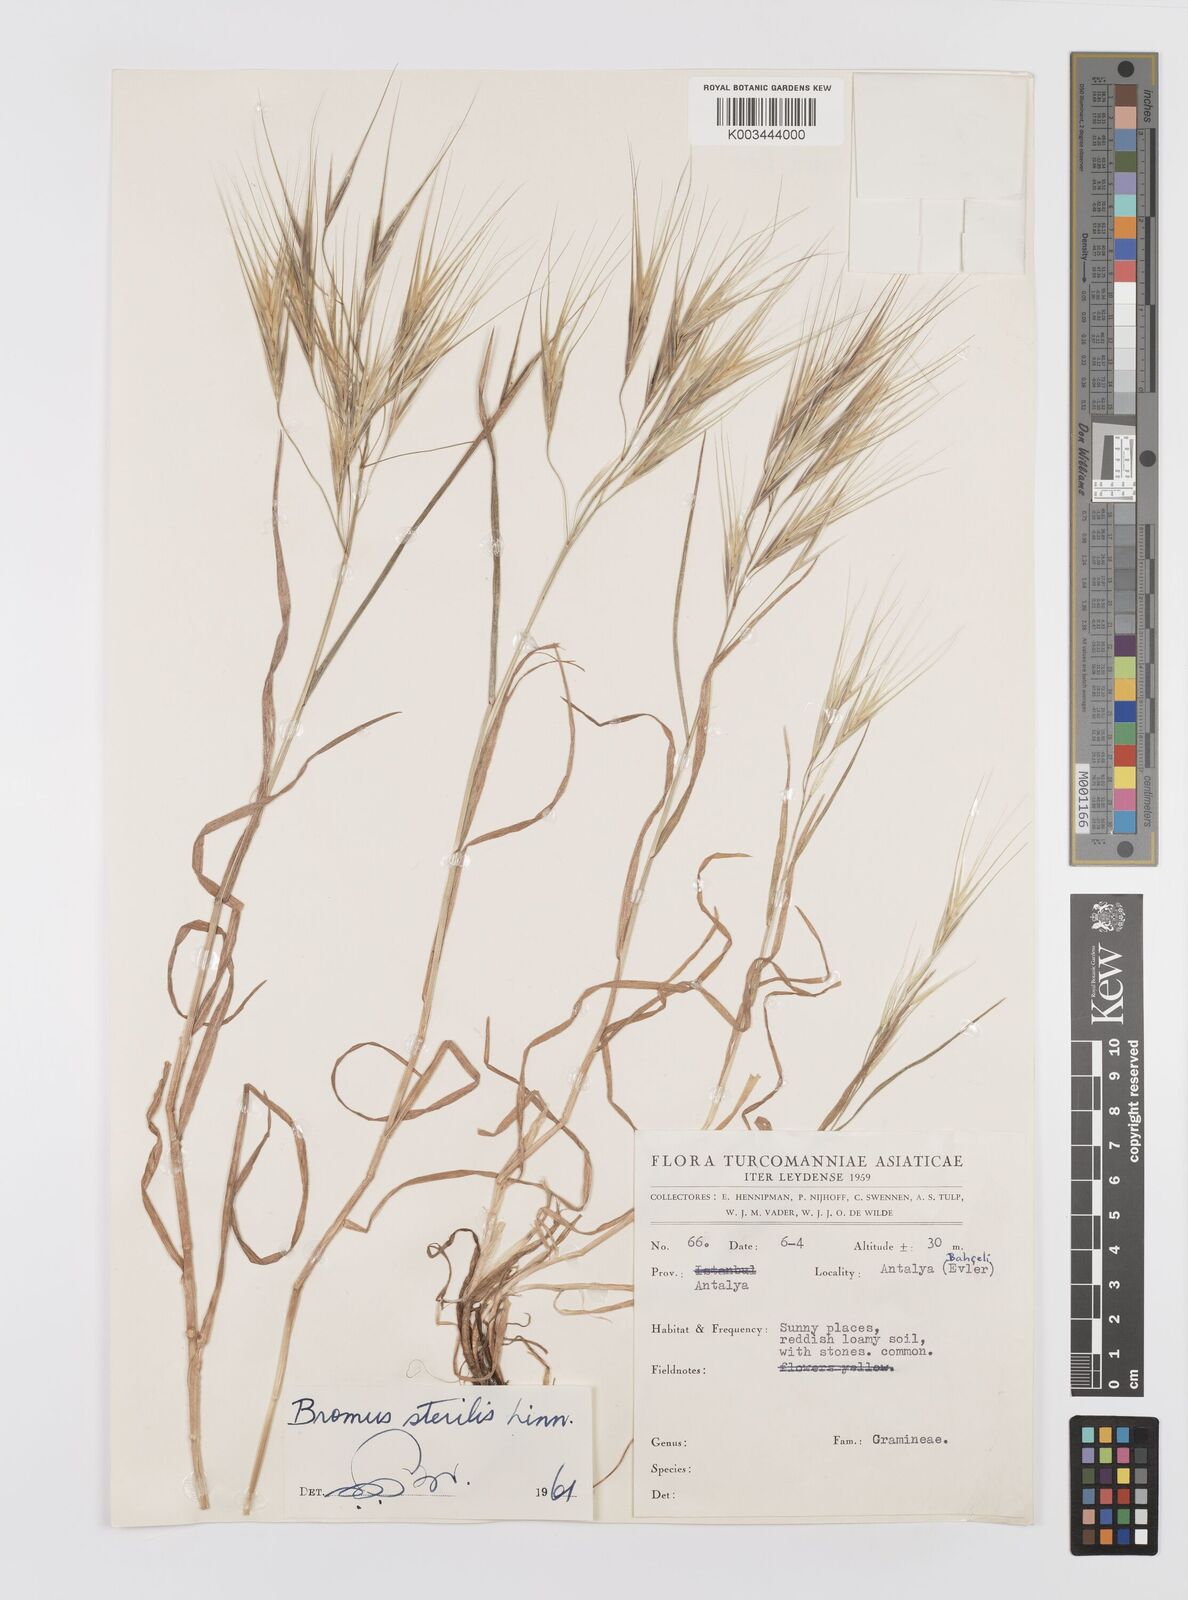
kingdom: Plantae
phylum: Tracheophyta
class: Liliopsida
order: Poales
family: Poaceae
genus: Bromus
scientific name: Bromus sterilis
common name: Poverty brome
